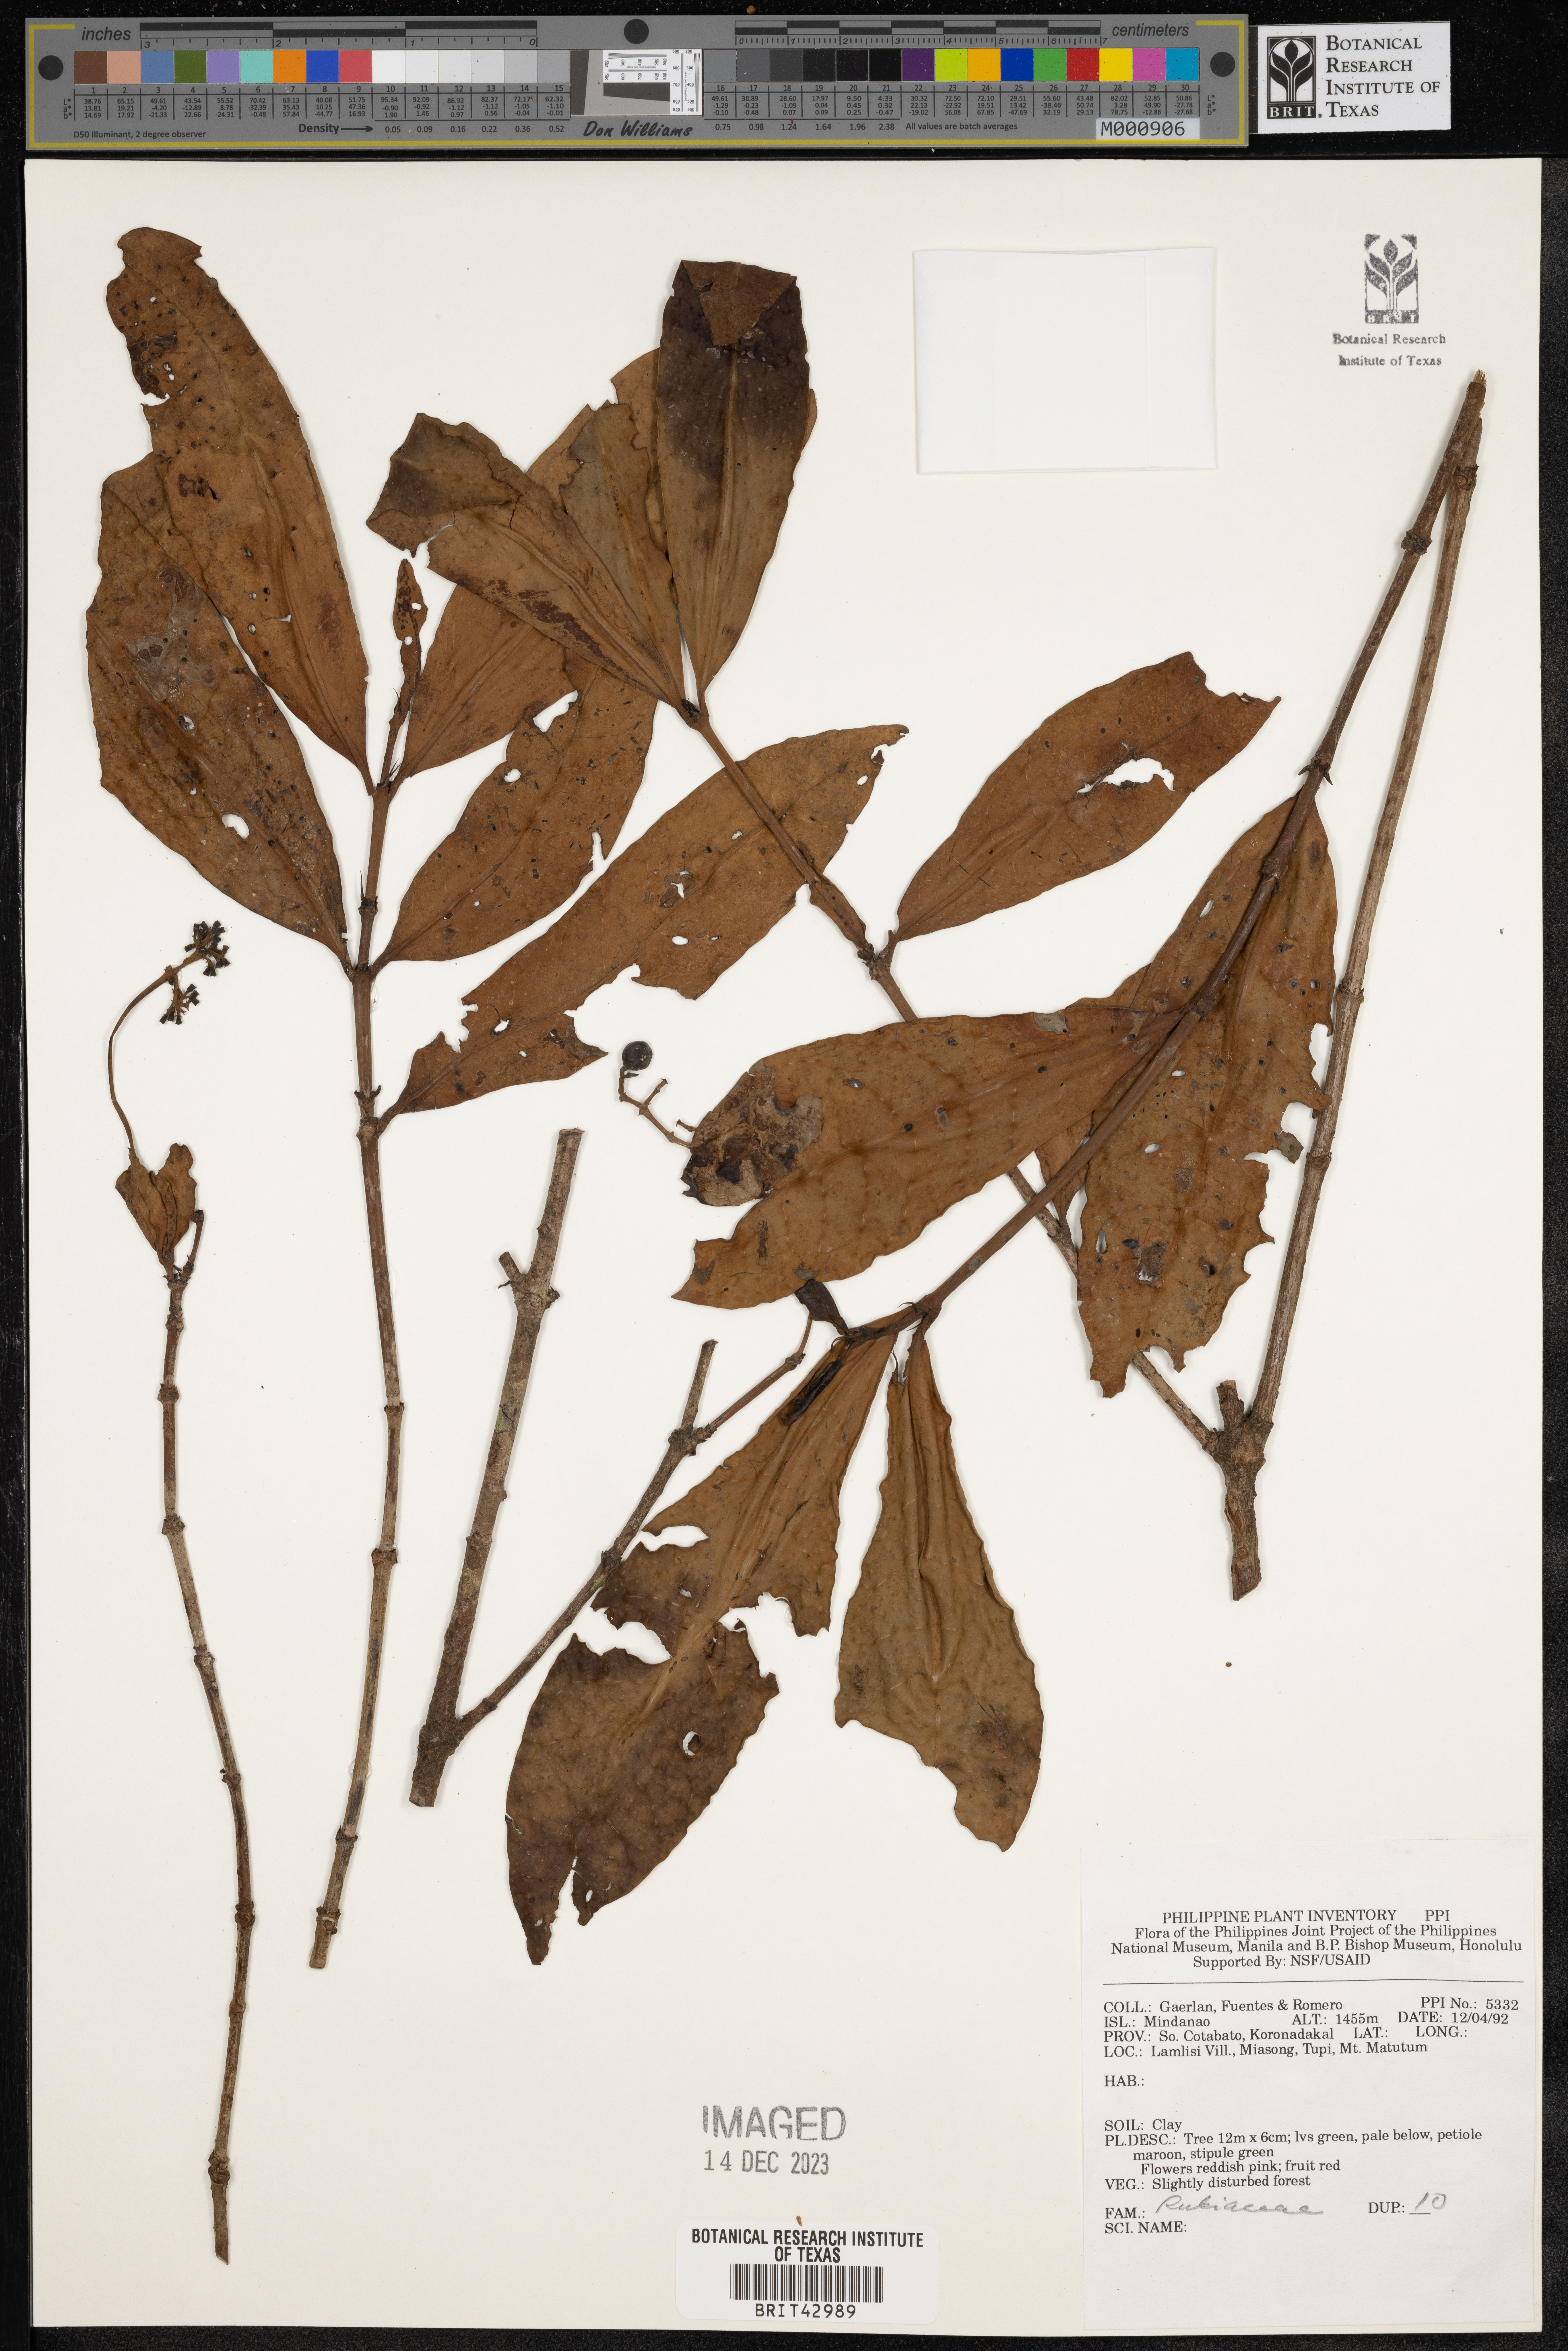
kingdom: Plantae
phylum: Tracheophyta
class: Magnoliopsida
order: Gentianales
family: Rubiaceae
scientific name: Rubiaceae
